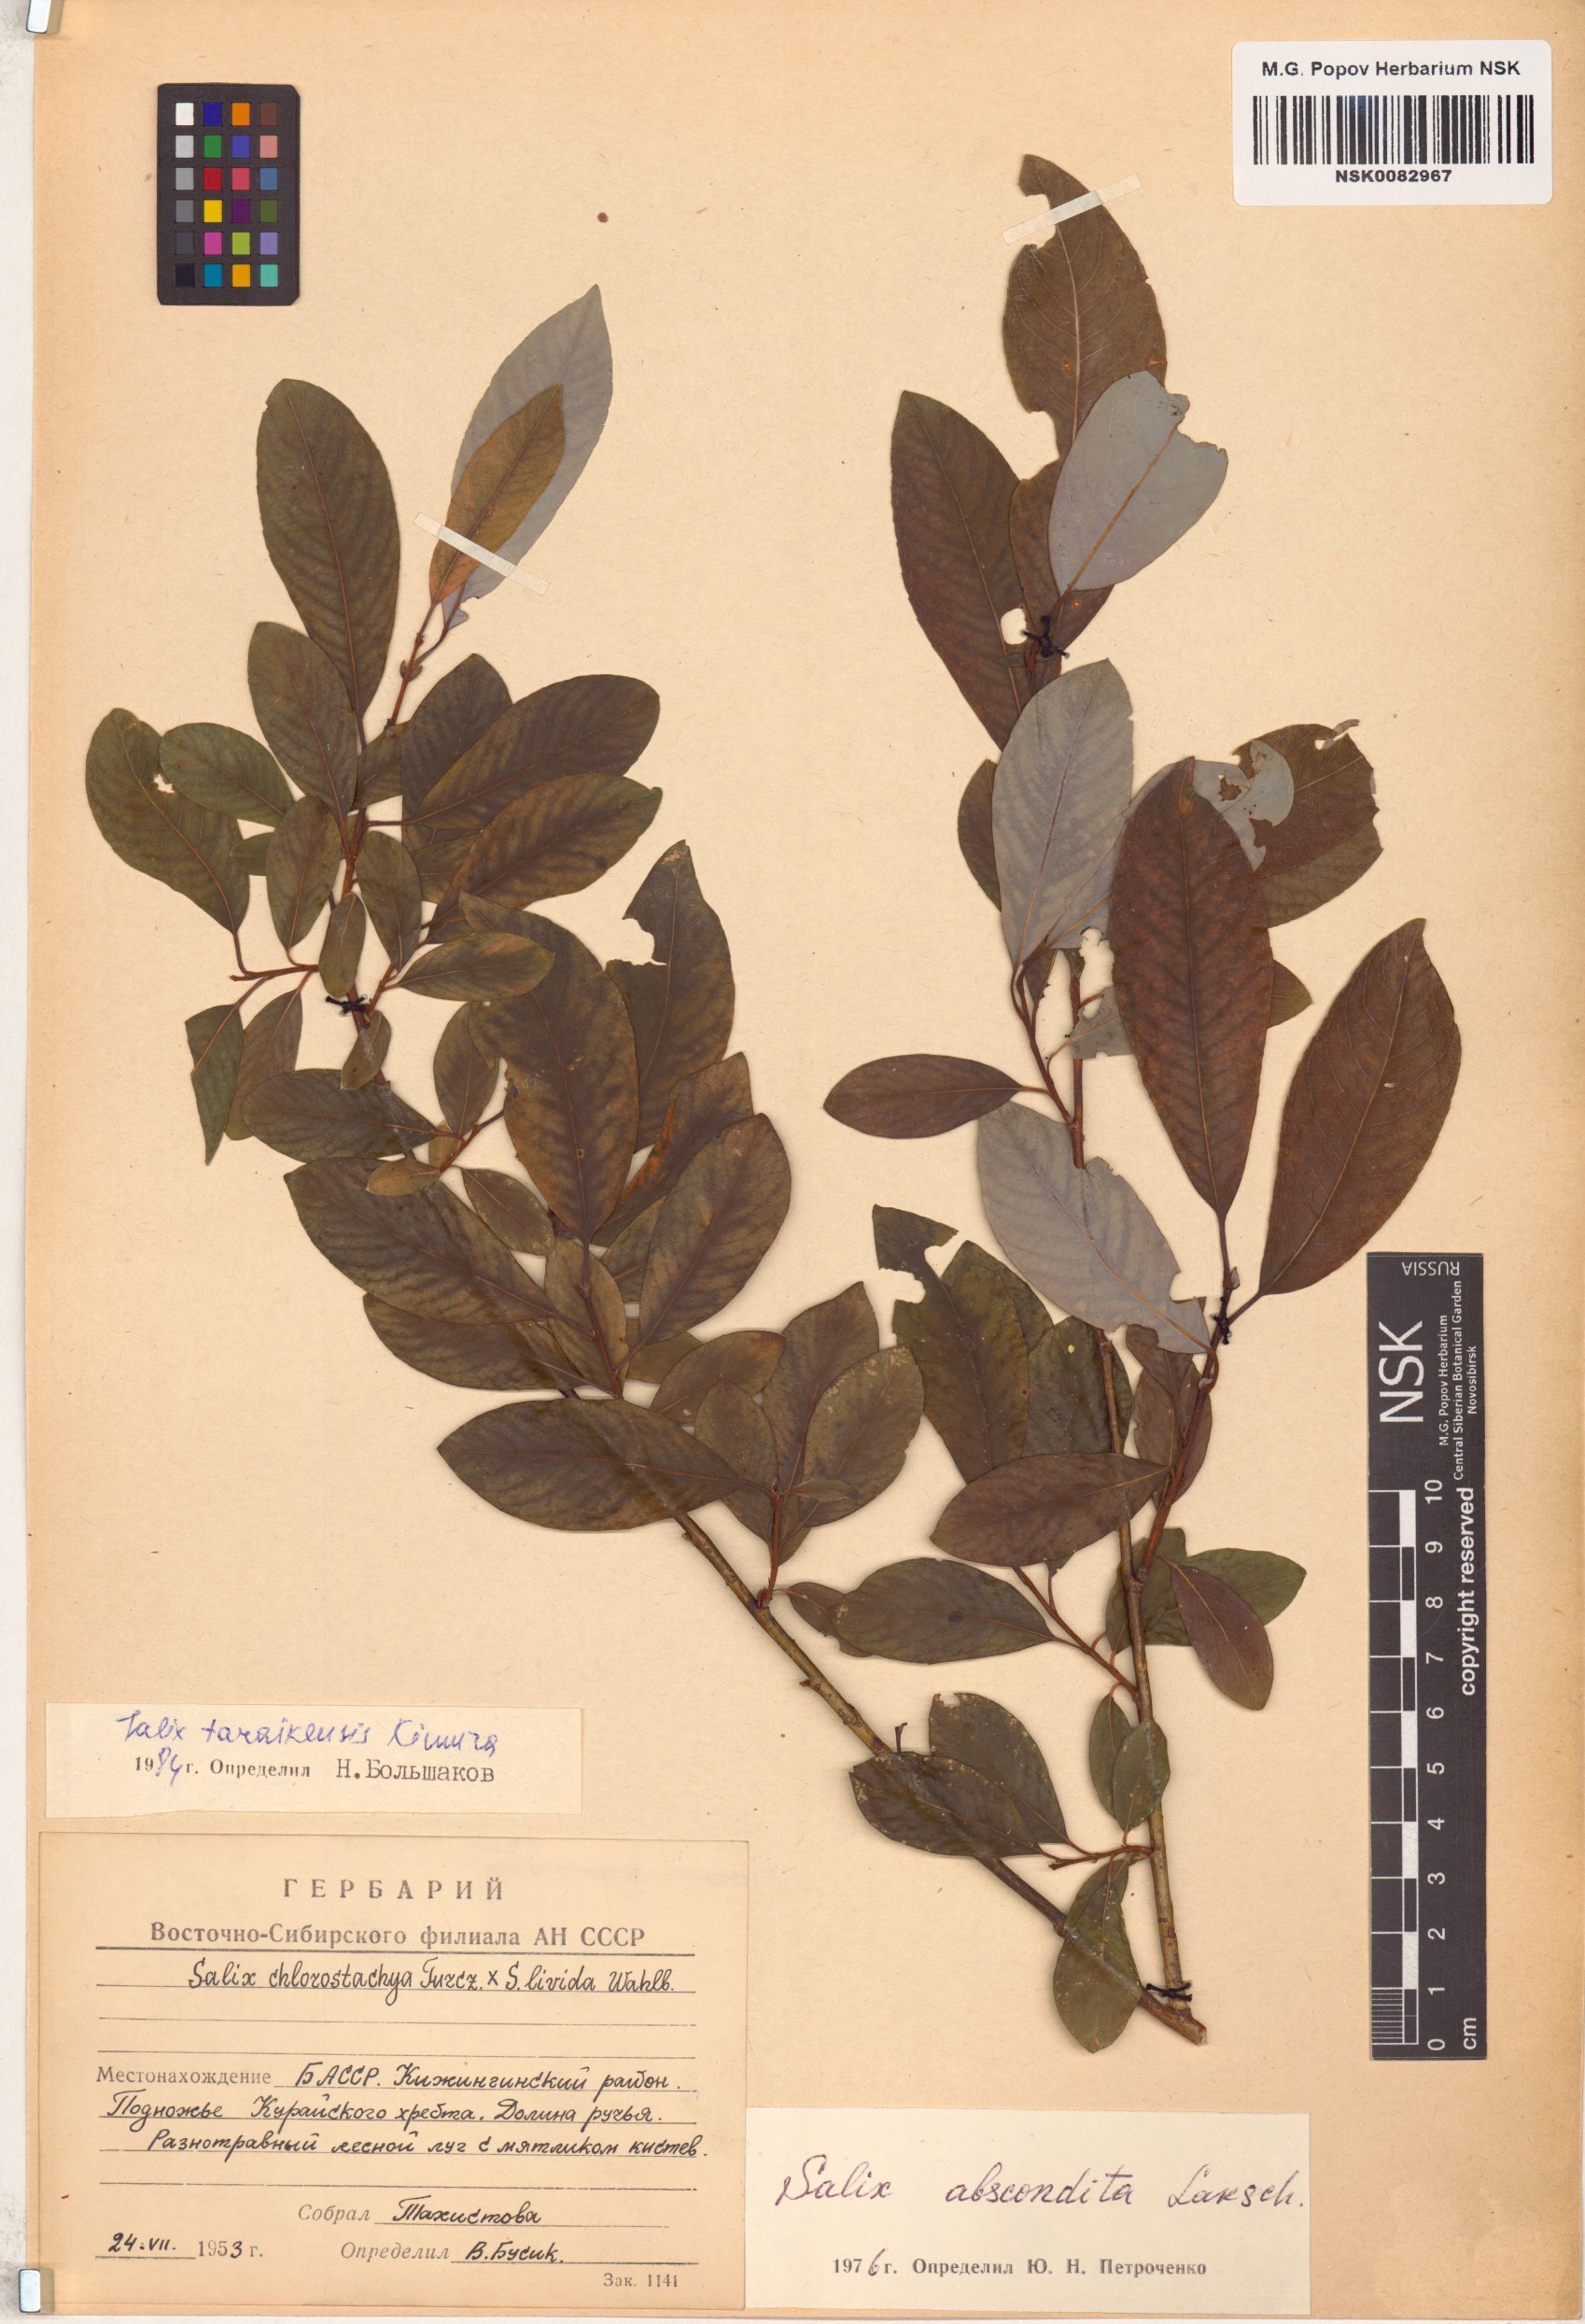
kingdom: Plantae
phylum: Tracheophyta
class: Magnoliopsida
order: Malpighiales
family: Salicaceae
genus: Salix
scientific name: Salix taraikensis
